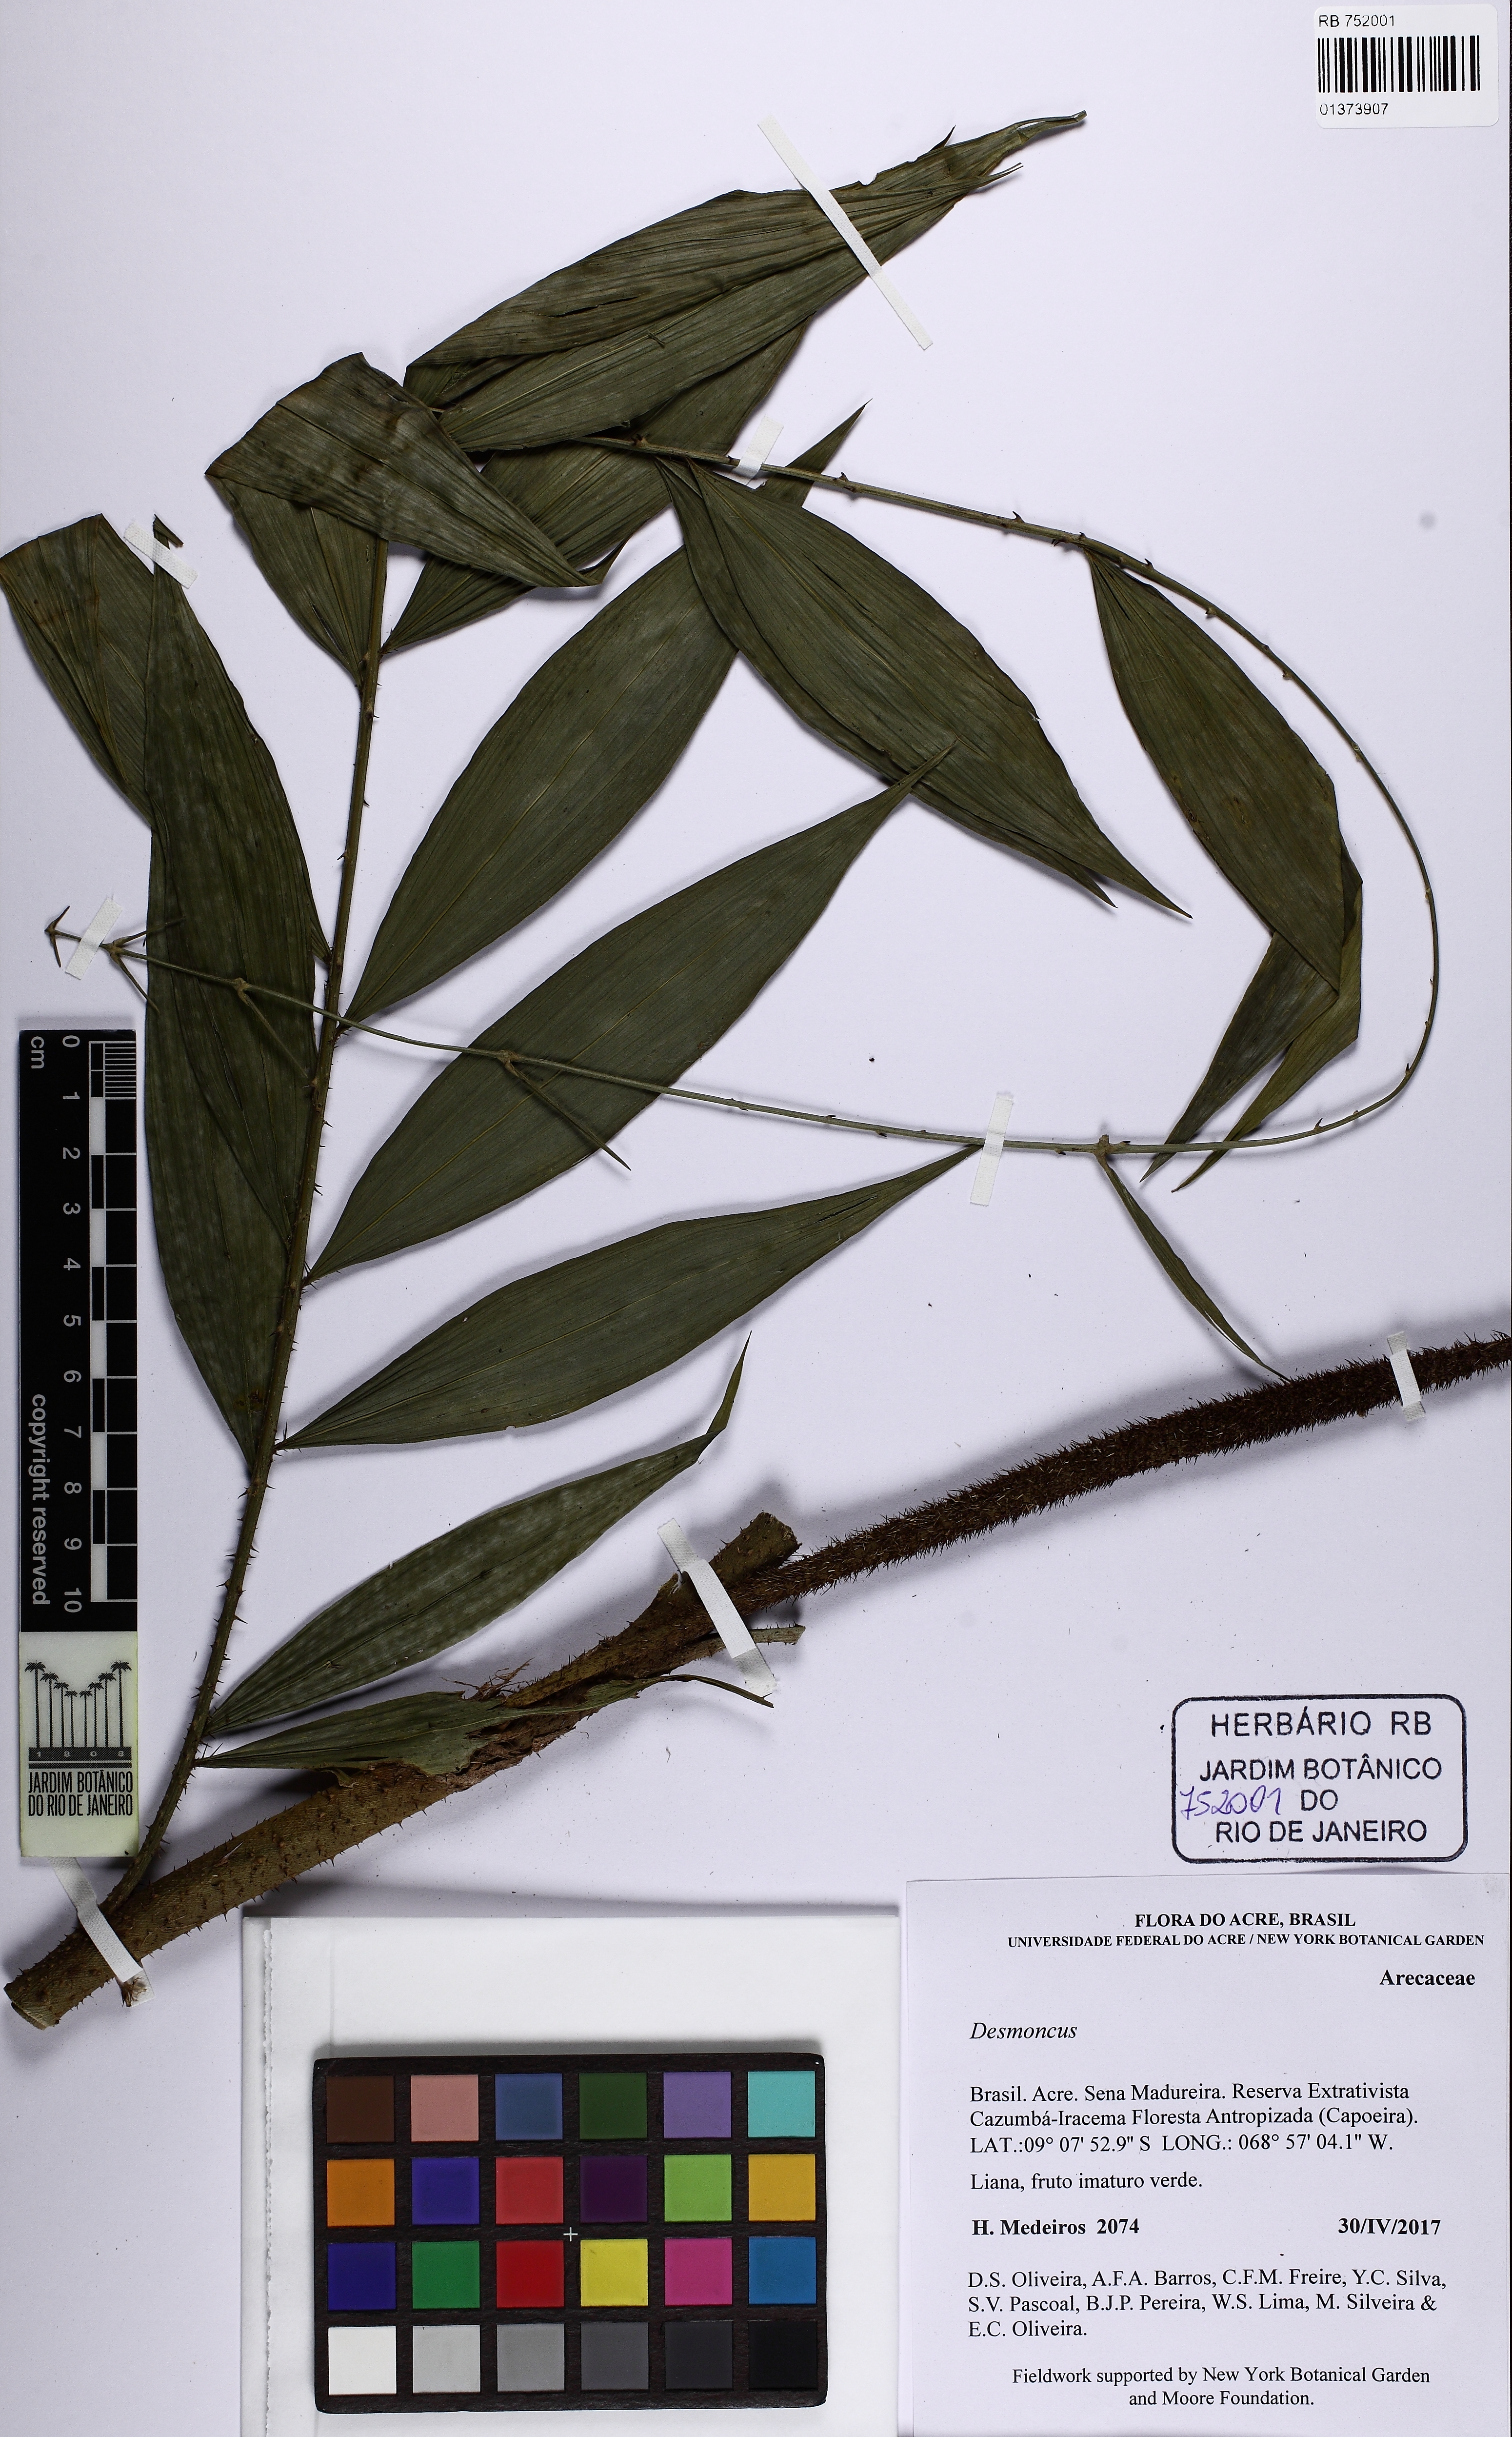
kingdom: Plantae
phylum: Tracheophyta
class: Liliopsida
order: Arecales
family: Arecaceae
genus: Desmoncus
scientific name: Desmoncus
